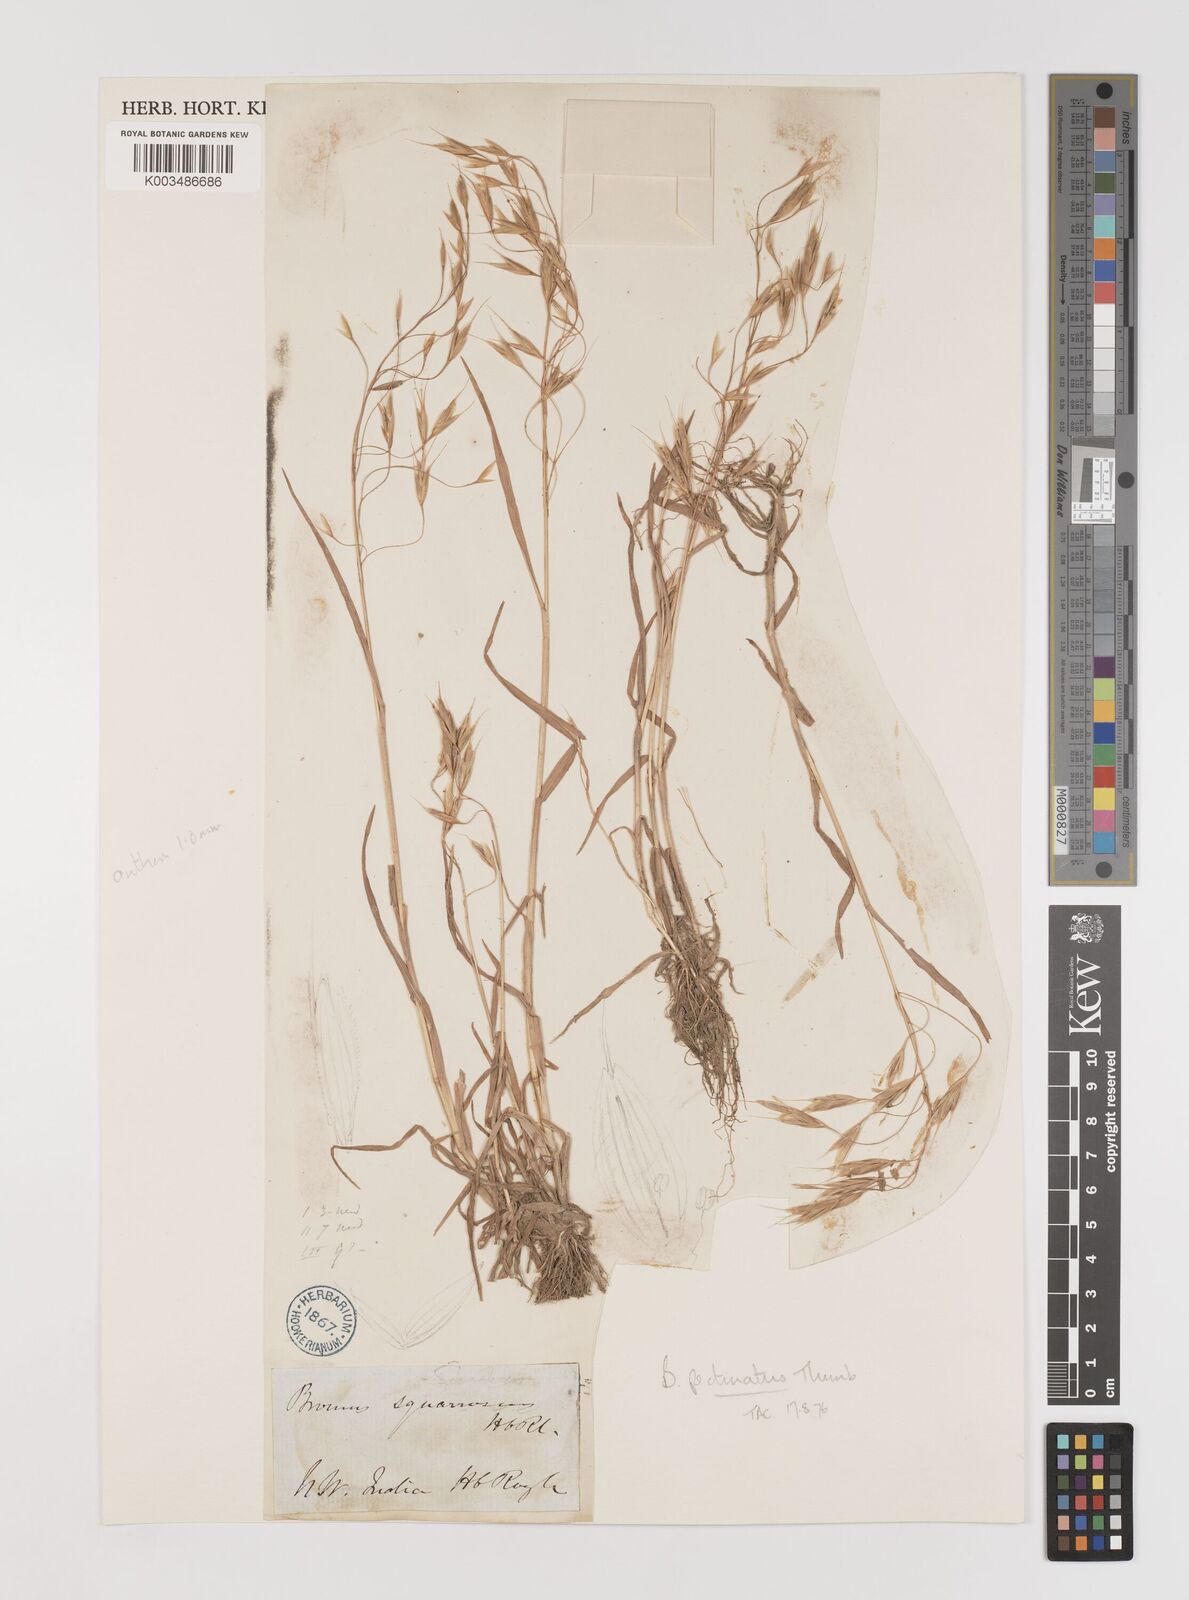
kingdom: Plantae
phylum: Tracheophyta
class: Liliopsida
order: Poales
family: Poaceae
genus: Bromus
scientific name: Bromus pectinatus
